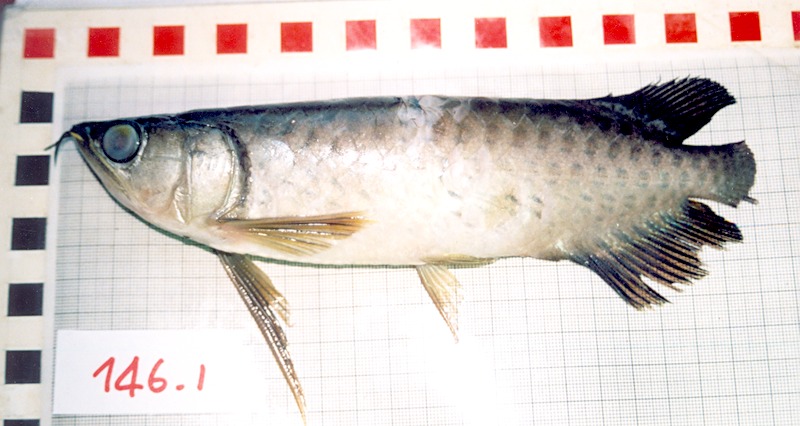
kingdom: Animalia
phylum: Chordata
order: Osteoglossiformes
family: Osteoglossidae
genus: Scleropages
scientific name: Scleropages formosus
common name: Asian bonytongue
